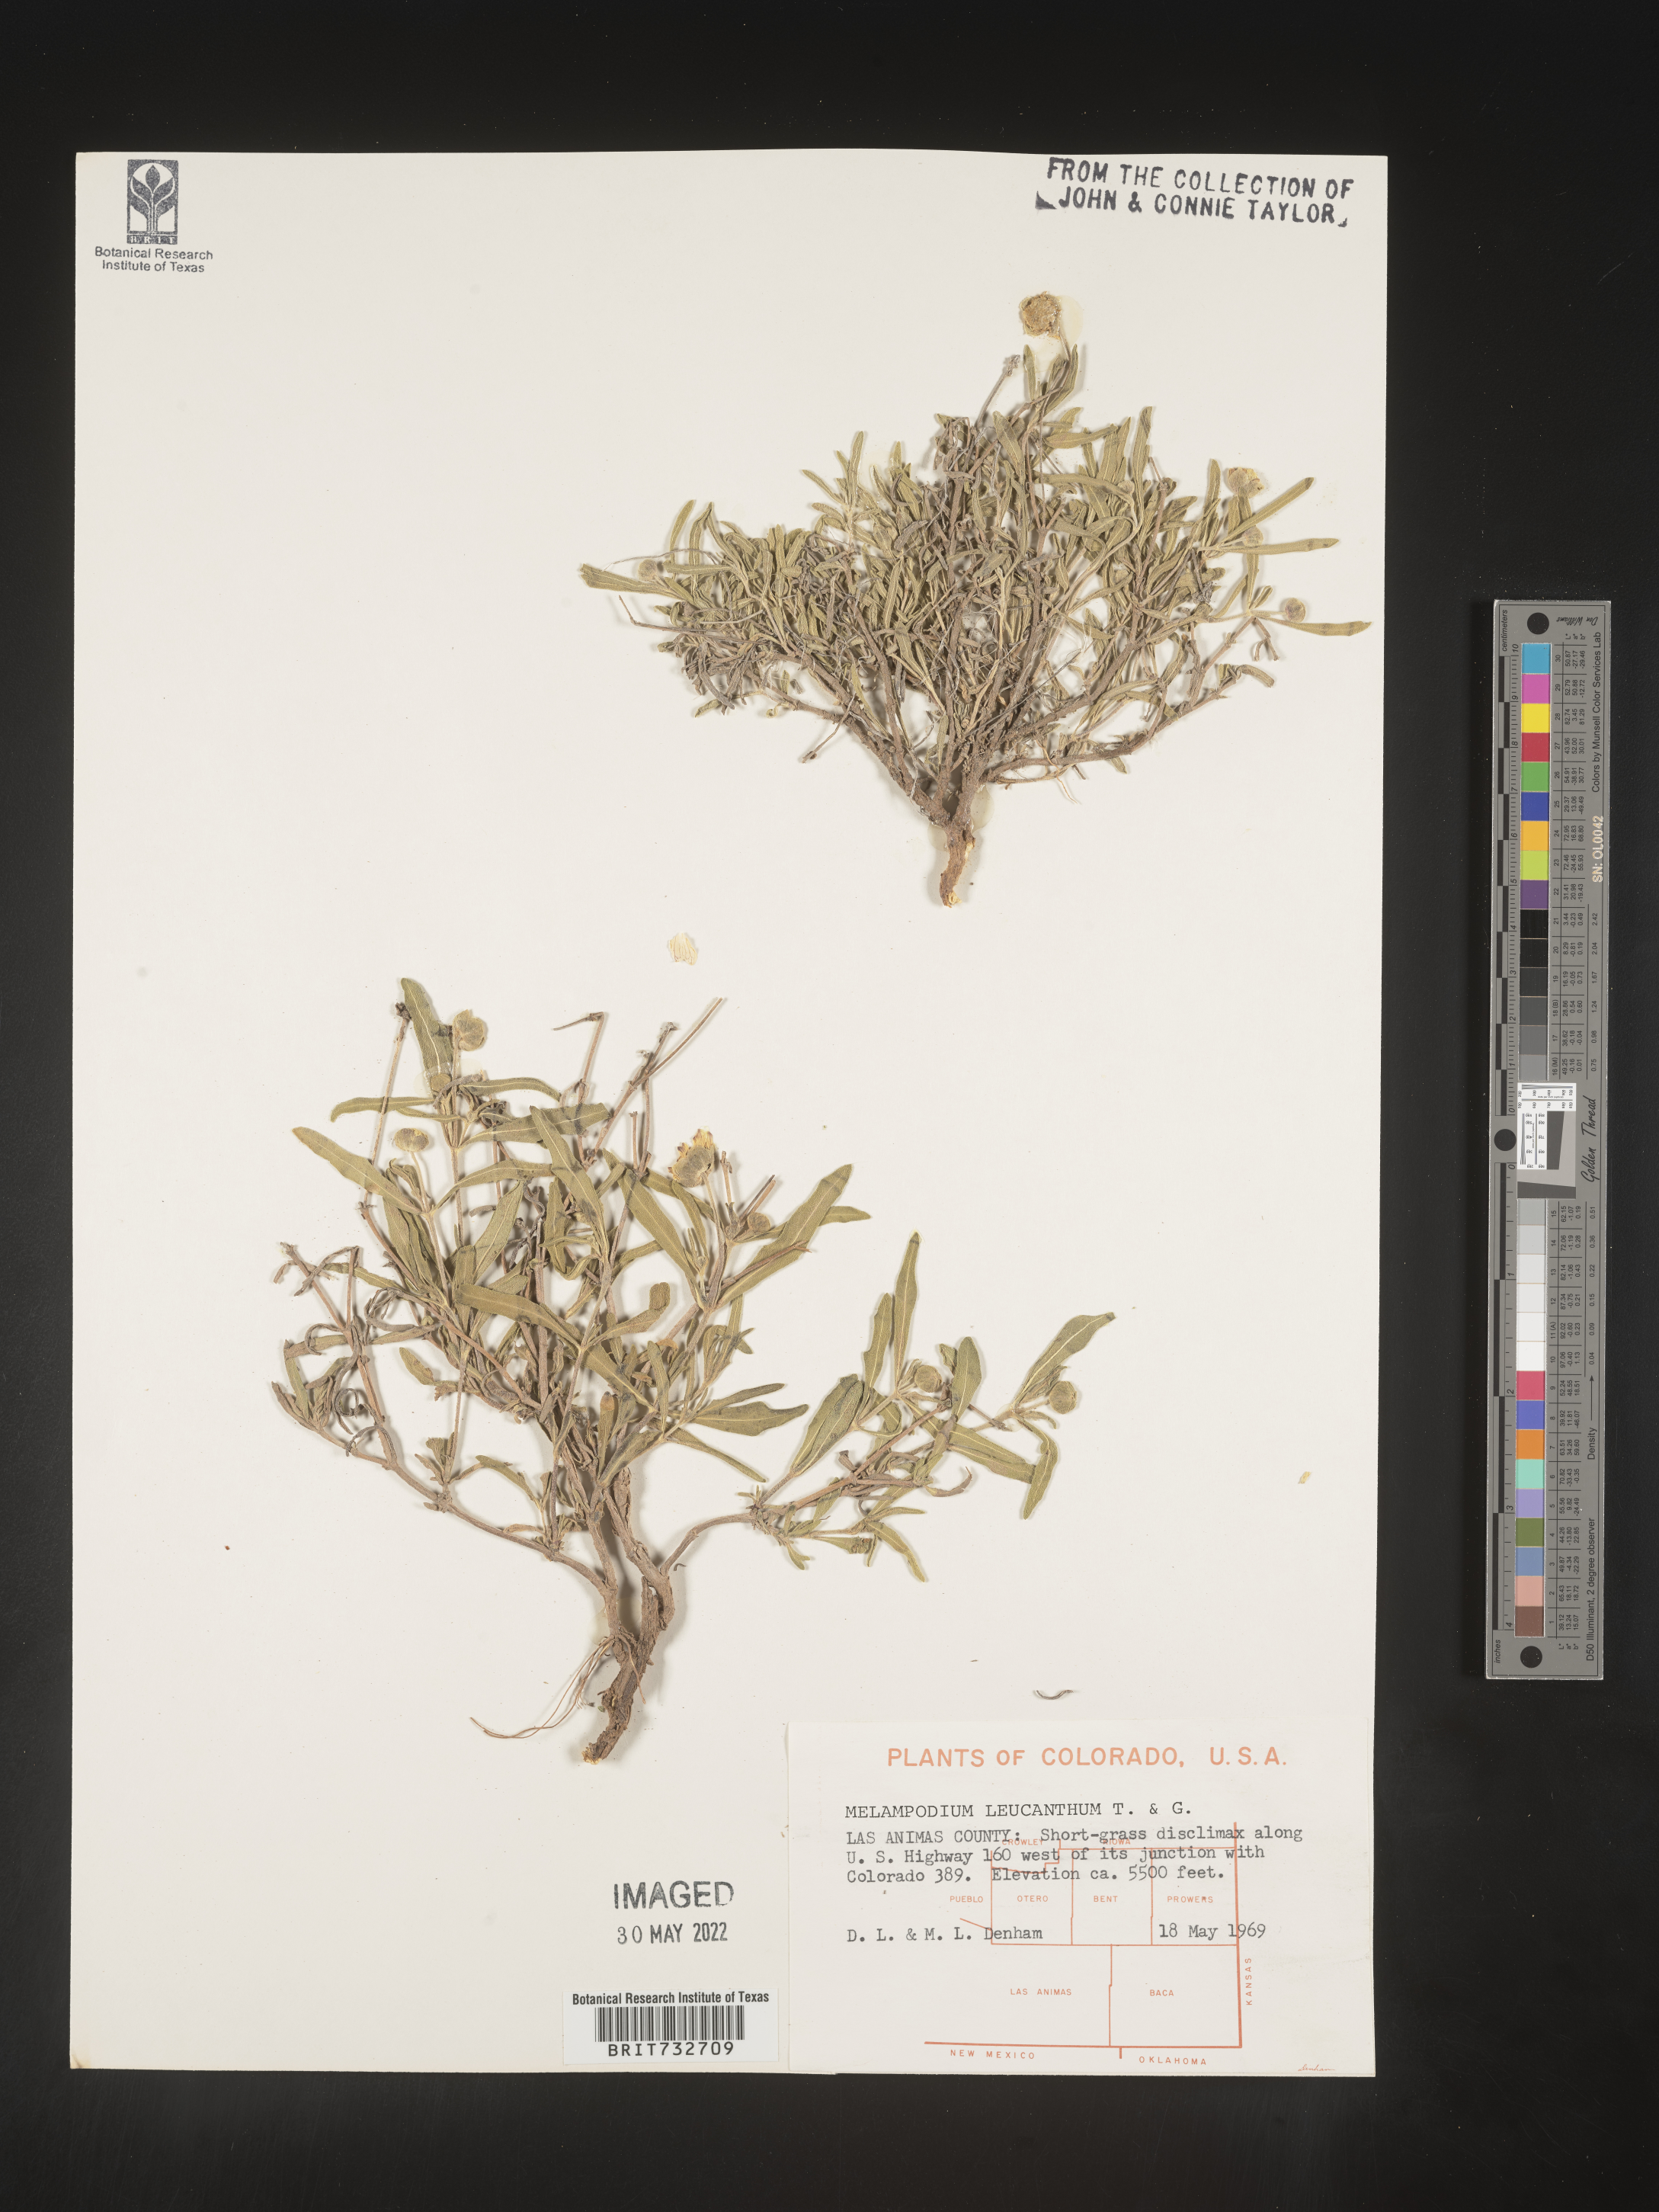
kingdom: Plantae
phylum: Tracheophyta
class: Magnoliopsida
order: Asterales
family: Asteraceae
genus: Melampodium
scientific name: Melampodium leucanthum
